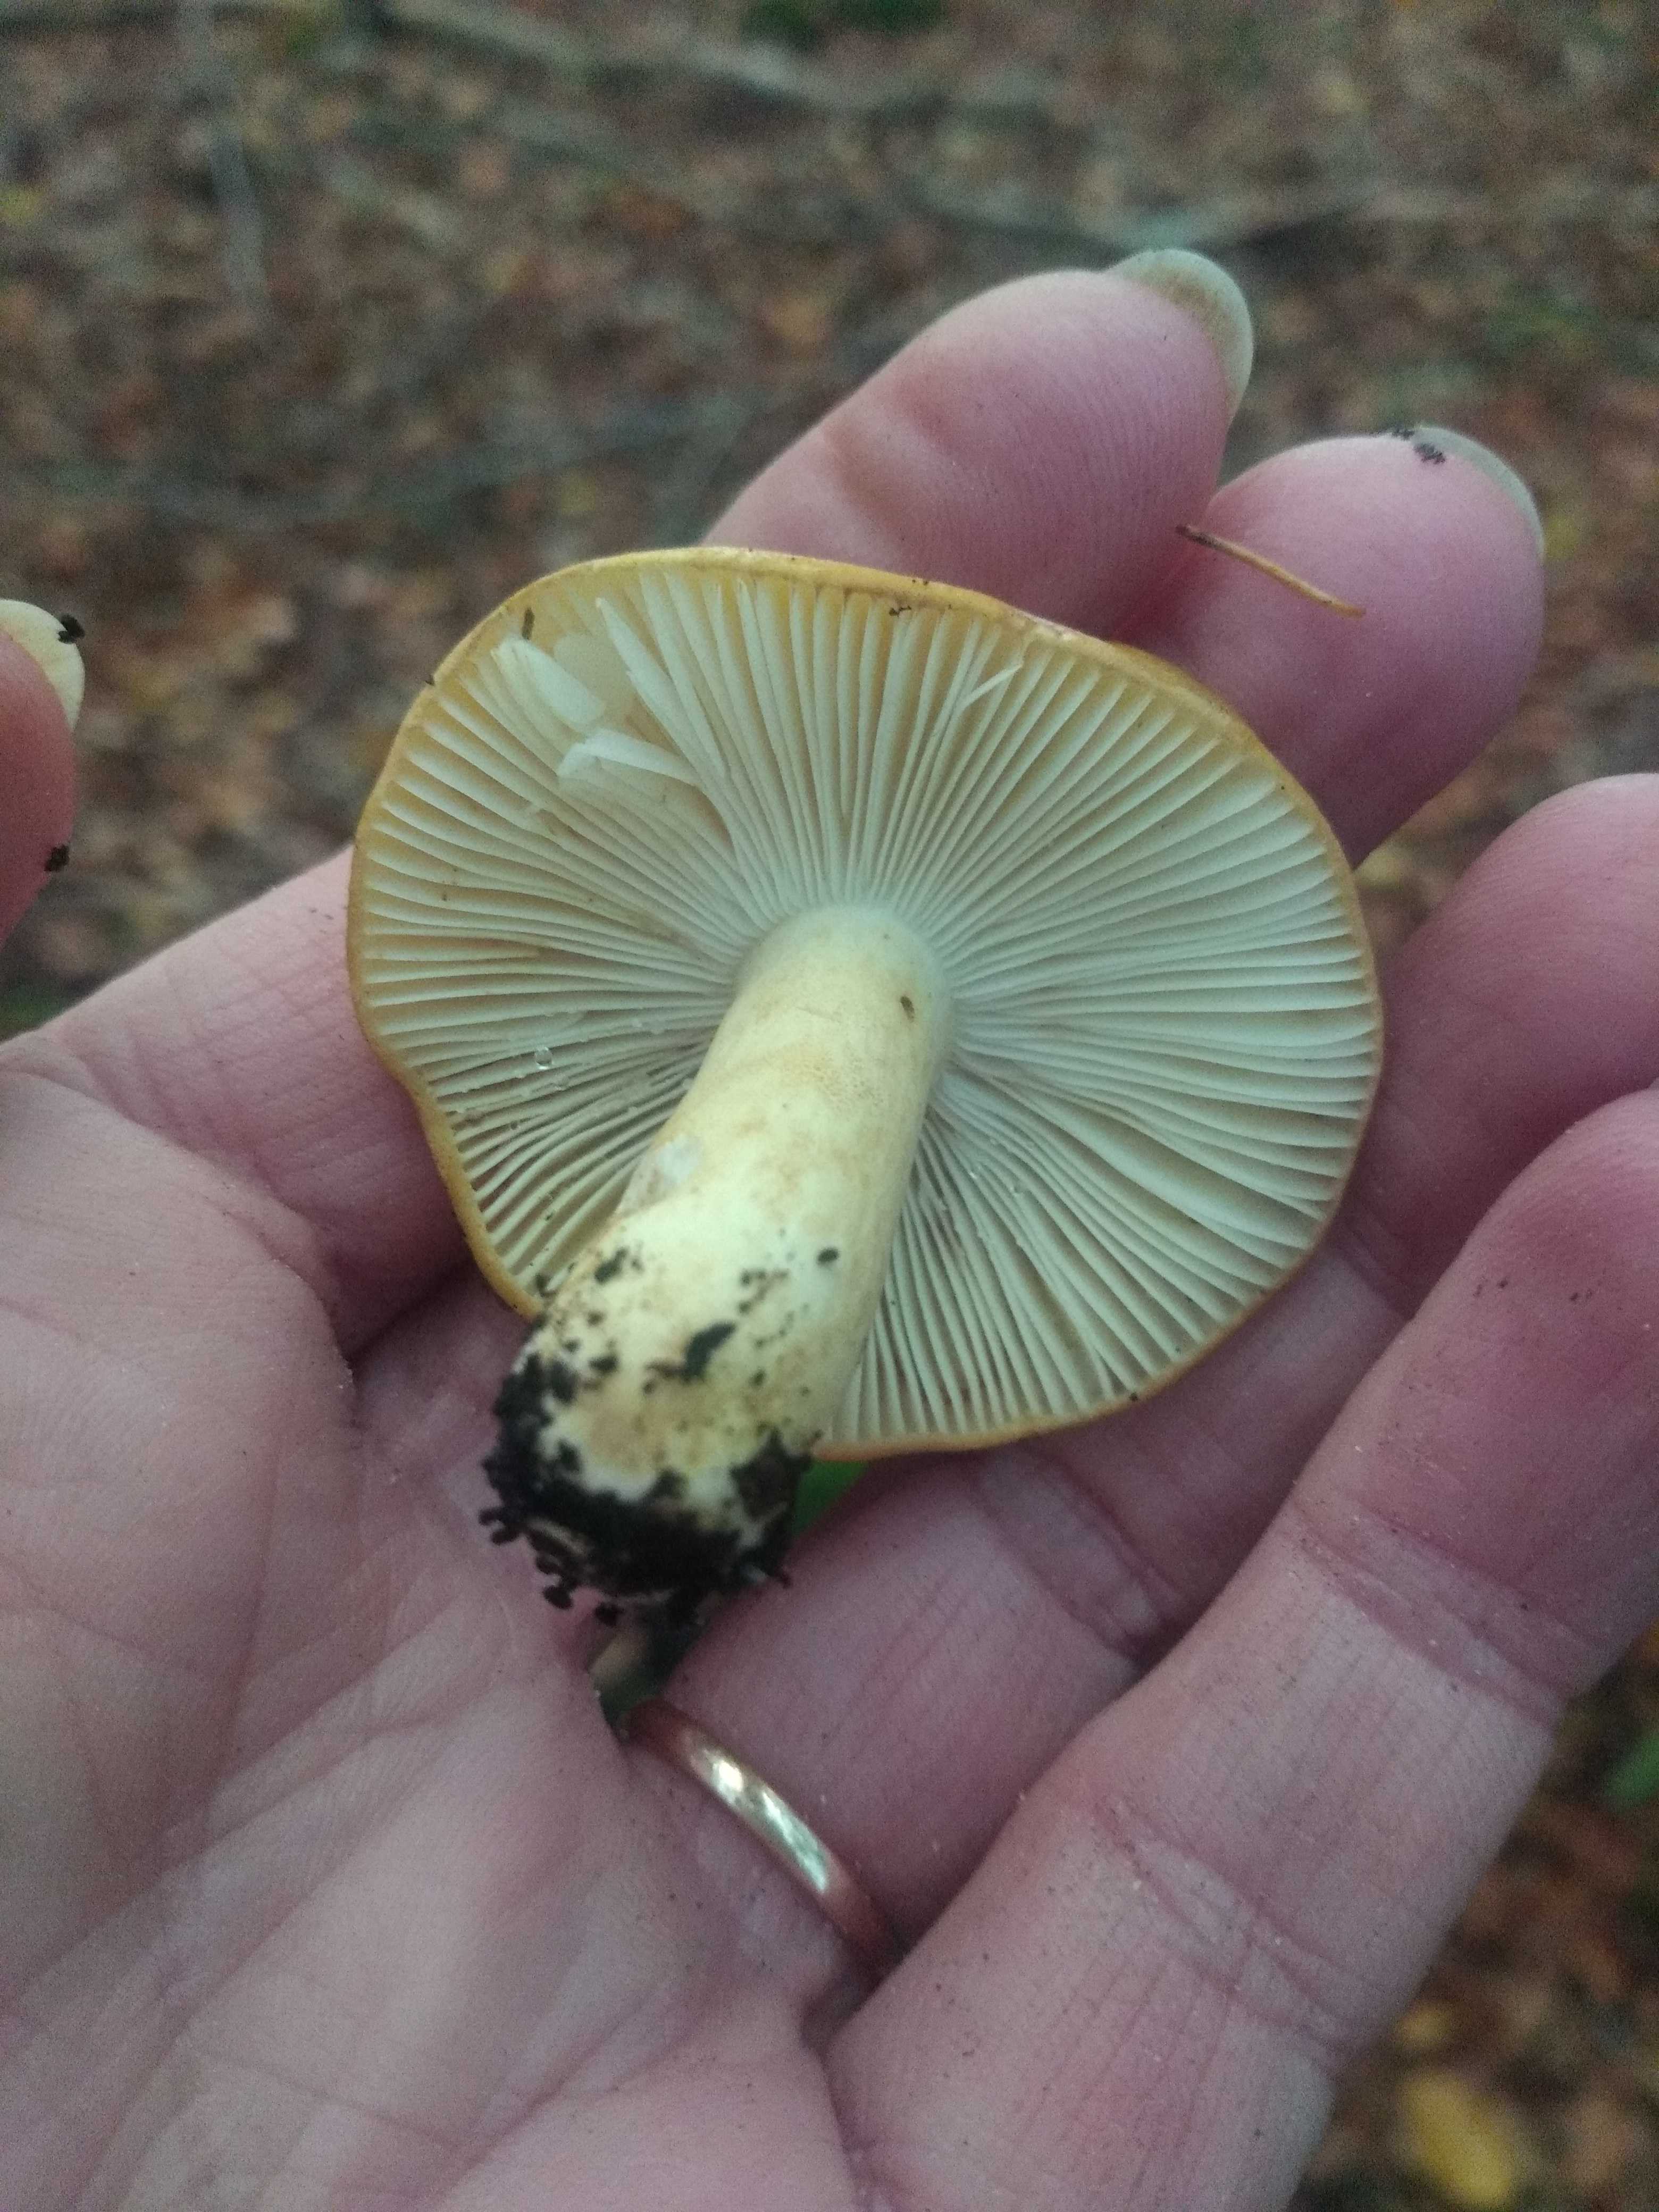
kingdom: Fungi
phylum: Basidiomycota
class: Agaricomycetes
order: Russulales
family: Russulaceae
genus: Russula
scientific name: Russula ochroleuca
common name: okkergul skørhat
